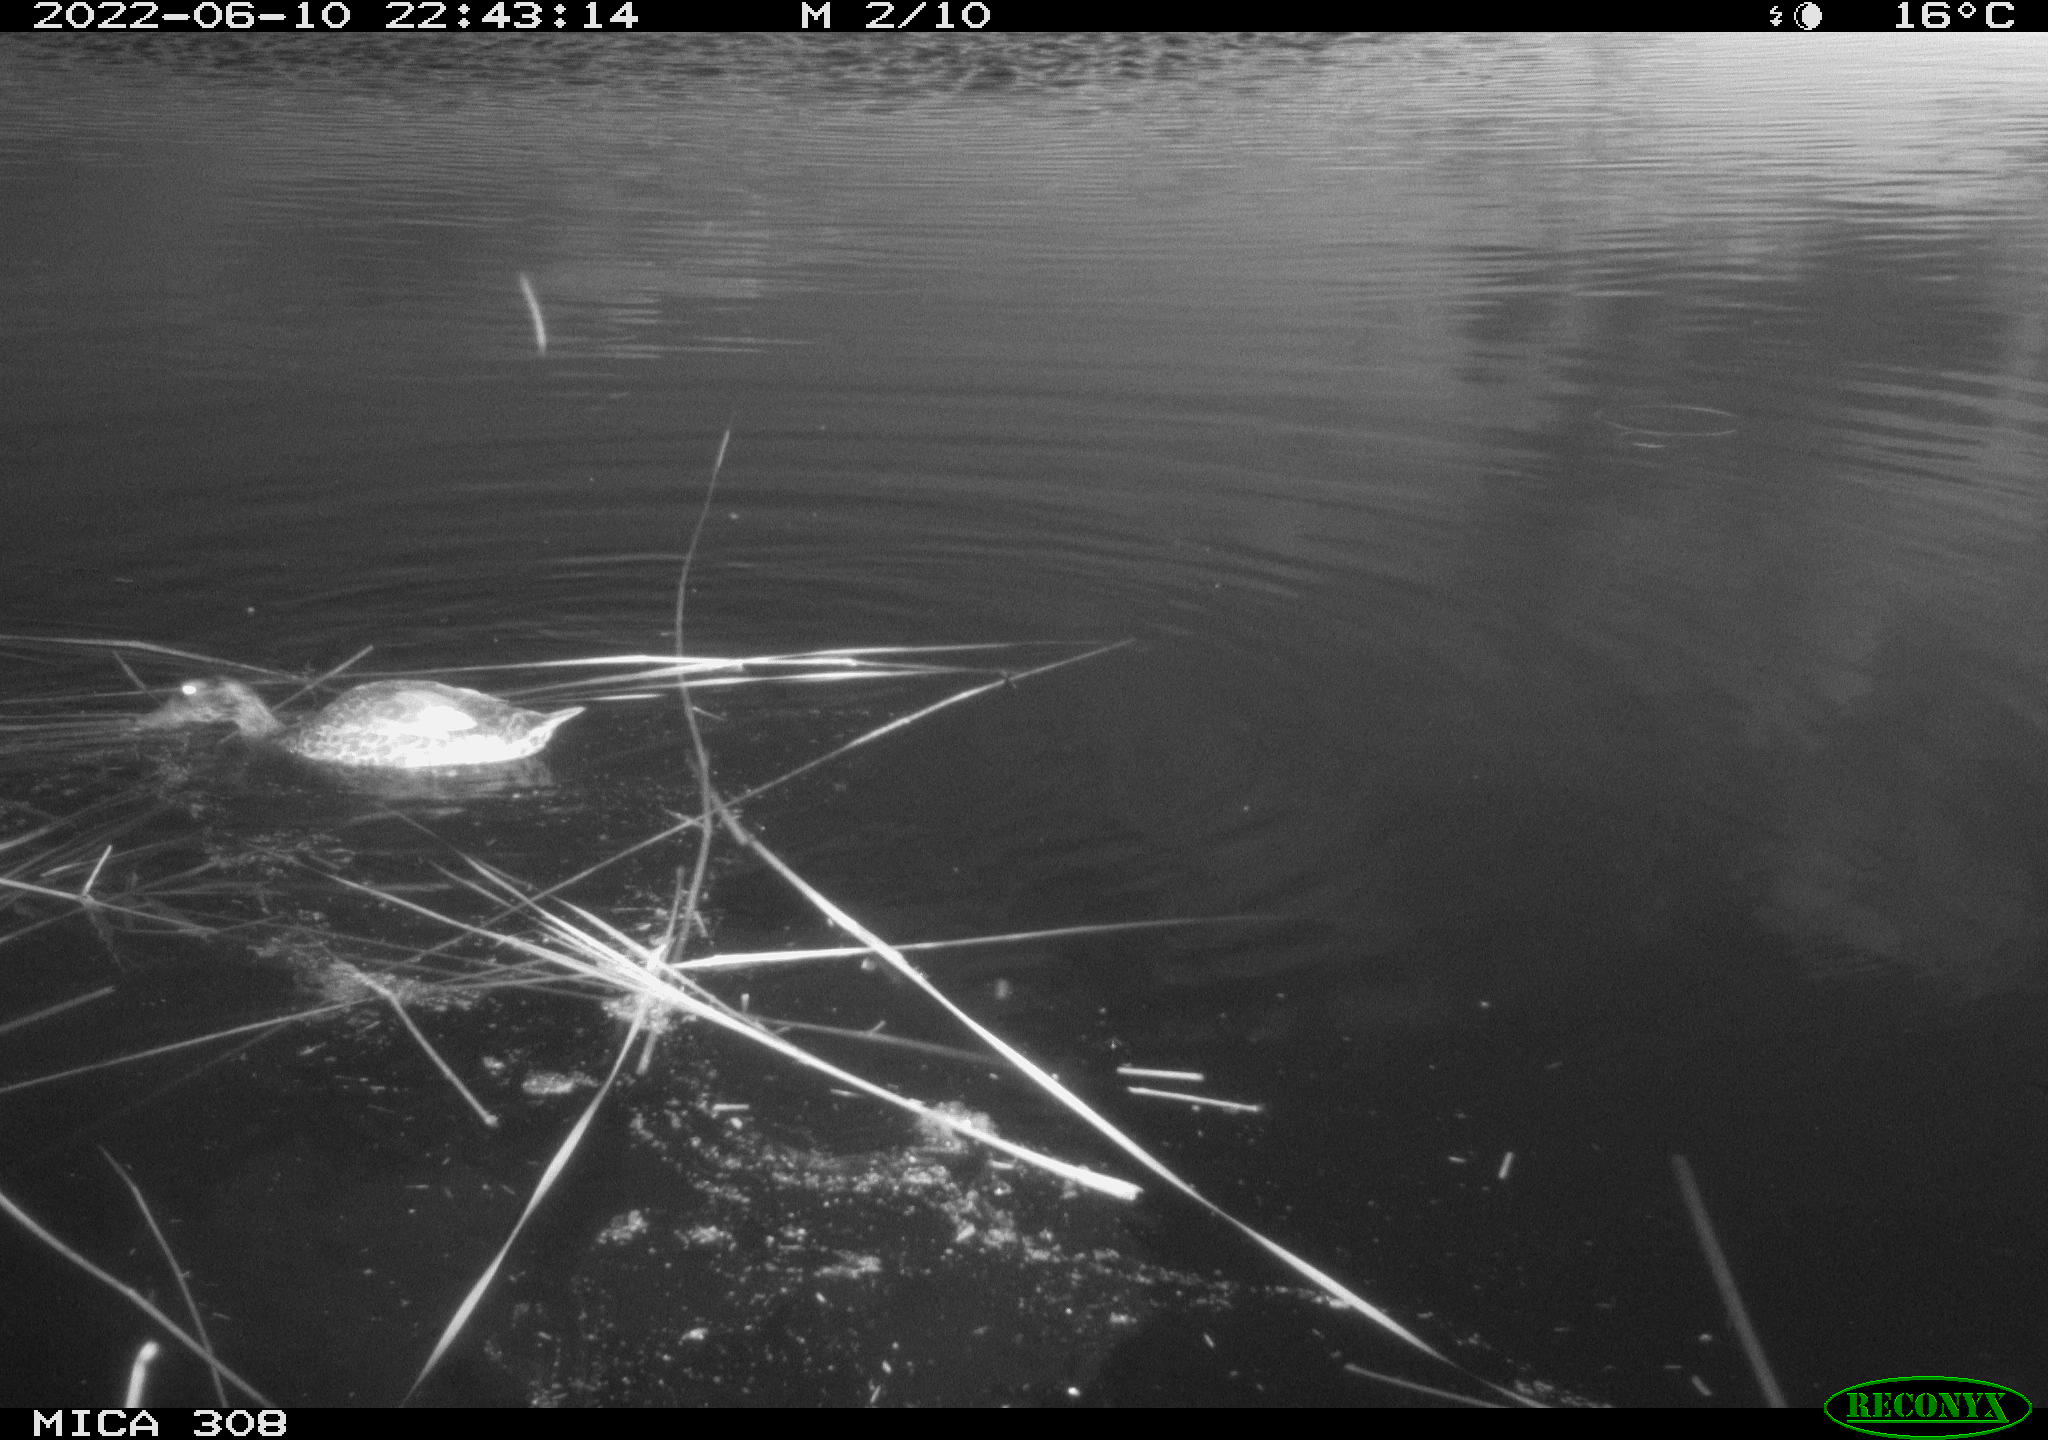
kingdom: Animalia
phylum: Chordata
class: Aves
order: Anseriformes
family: Anatidae
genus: Anas
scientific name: Anas platyrhynchos
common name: Mallard
